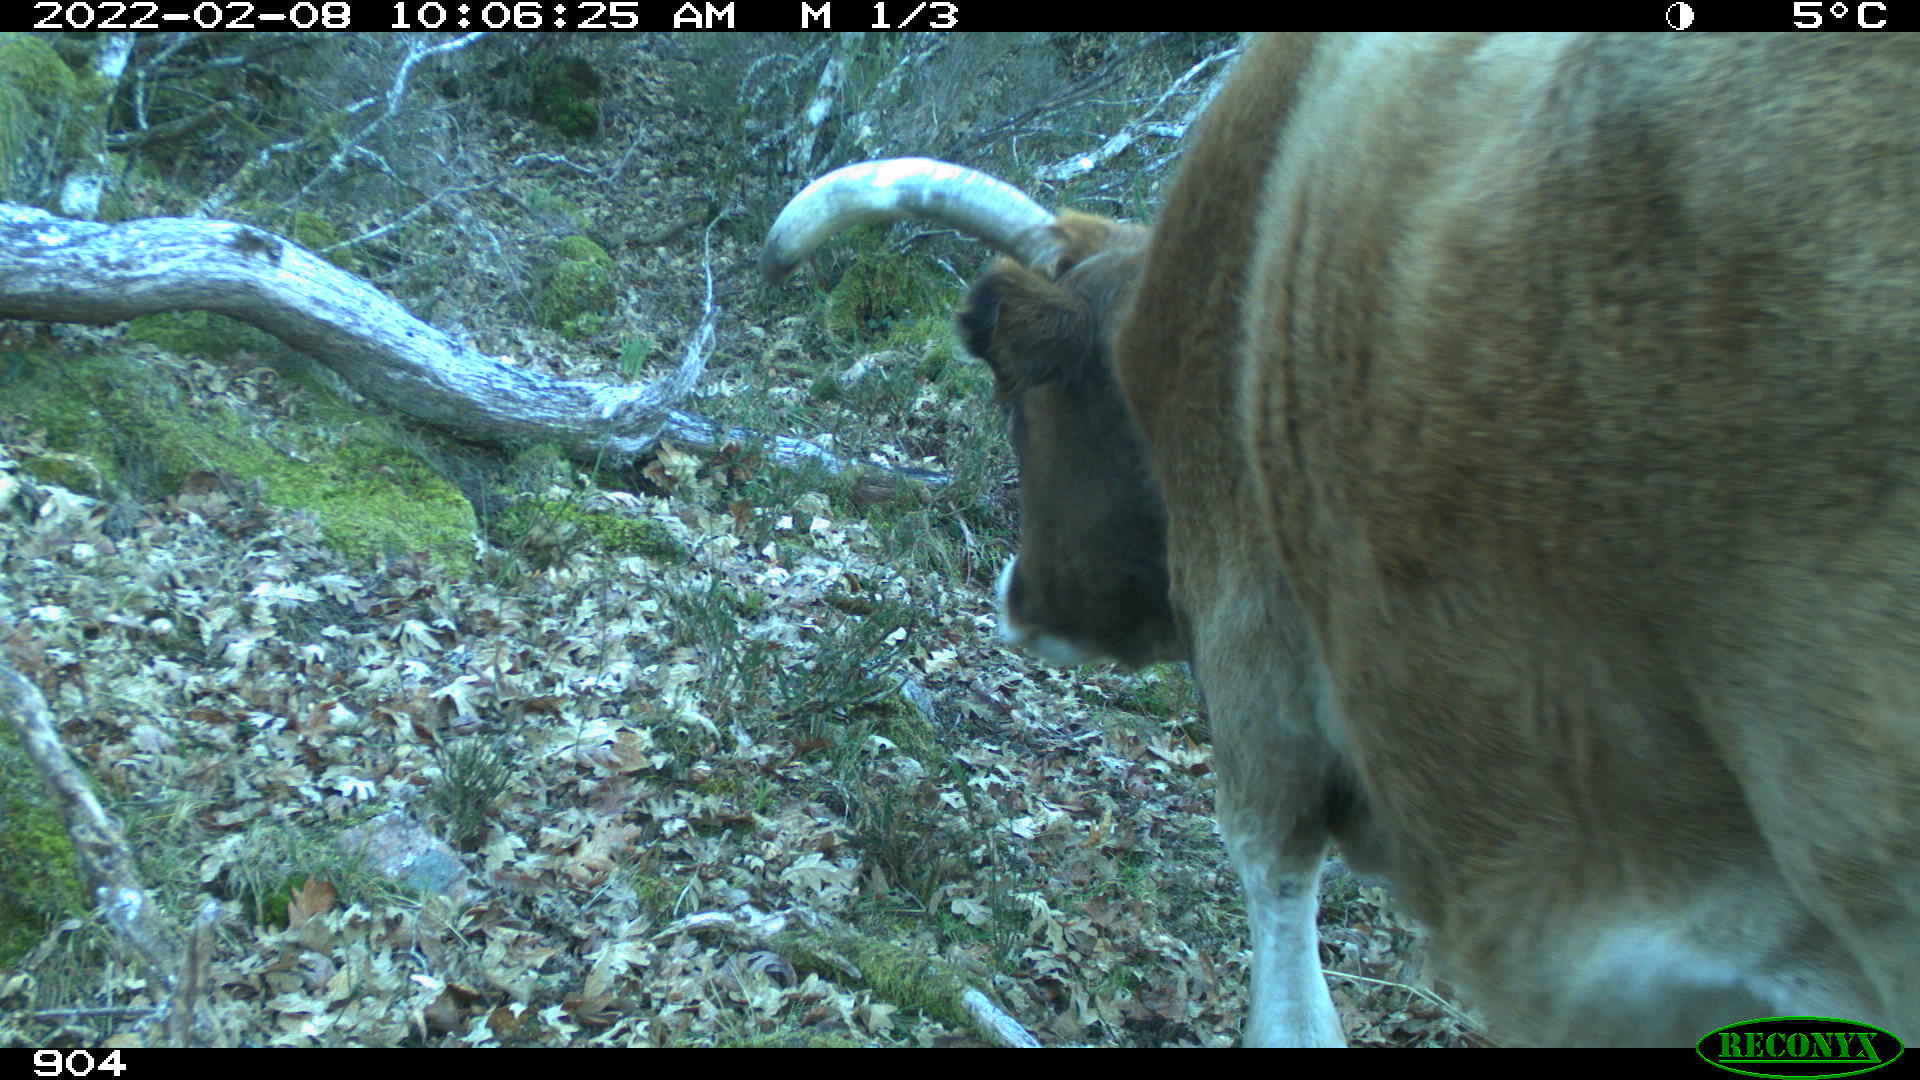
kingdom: Animalia
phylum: Chordata
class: Mammalia
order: Artiodactyla
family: Bovidae
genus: Bos
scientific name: Bos taurus
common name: Domesticated cattle
